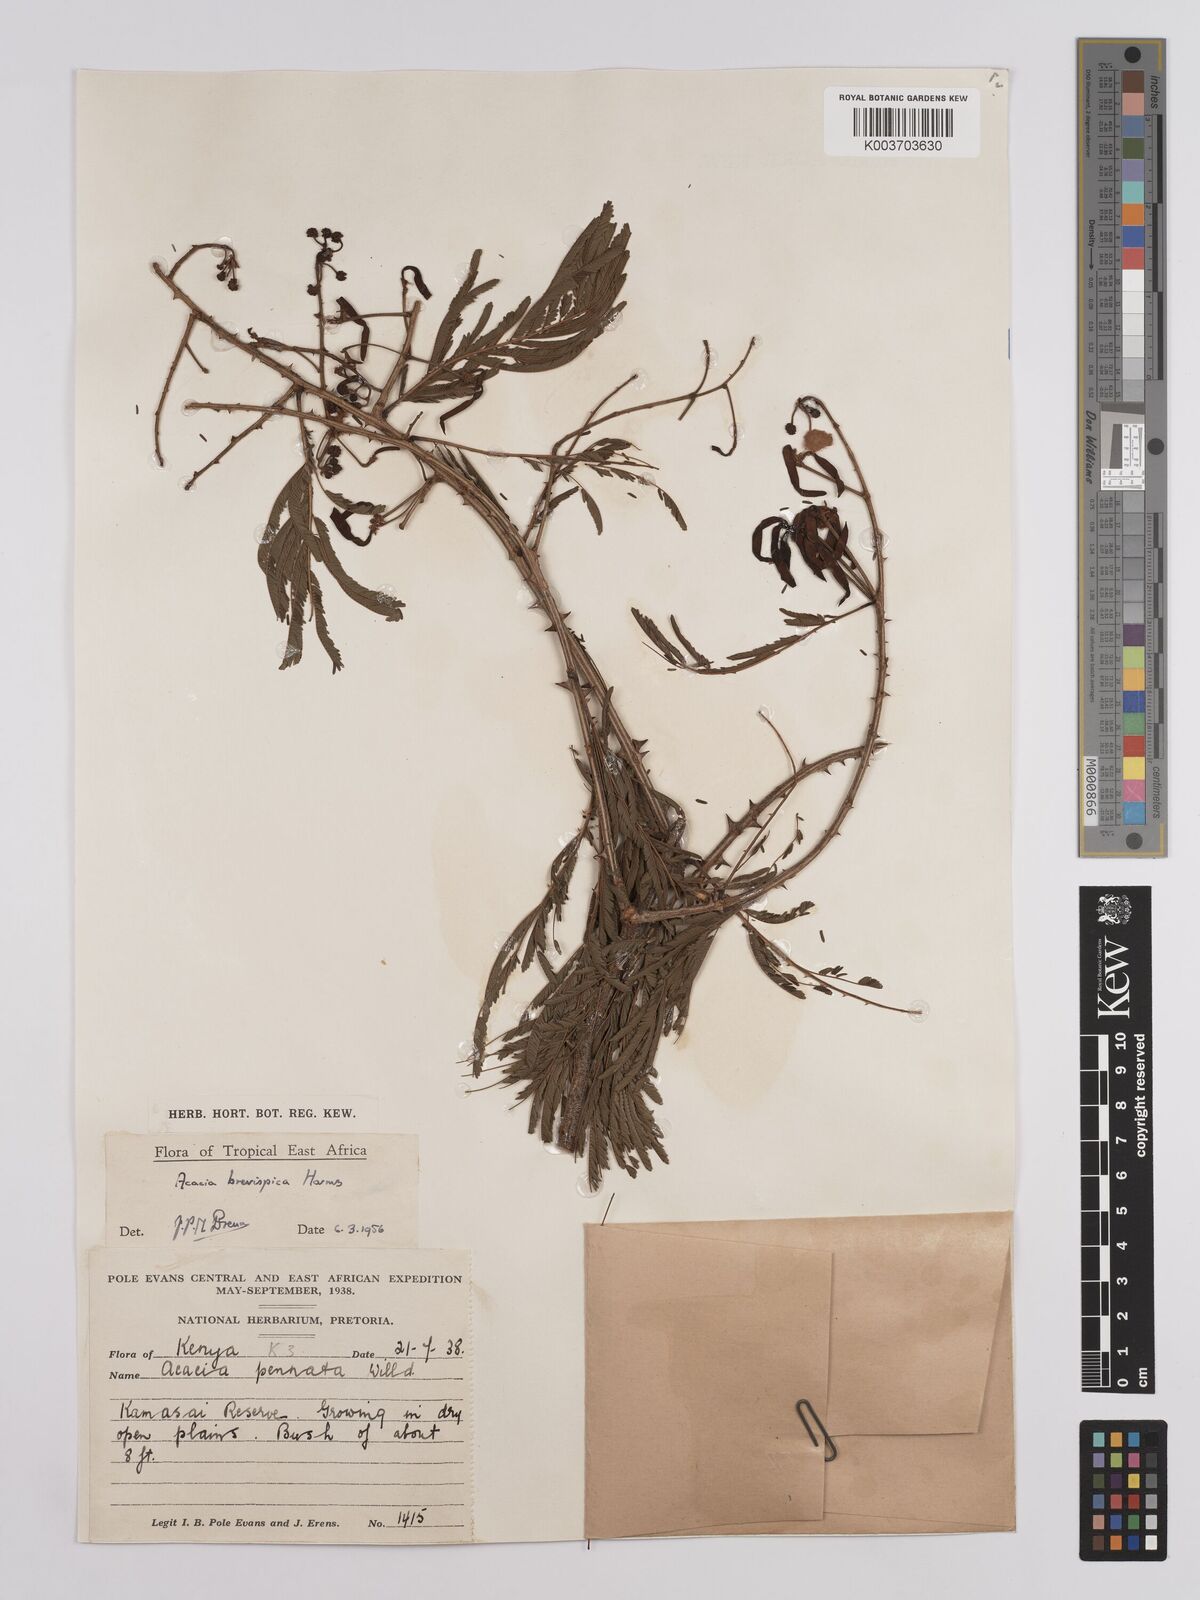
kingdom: Plantae
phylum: Tracheophyta
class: Magnoliopsida
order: Fabales
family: Fabaceae
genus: Senegalia
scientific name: Senegalia brevispica
